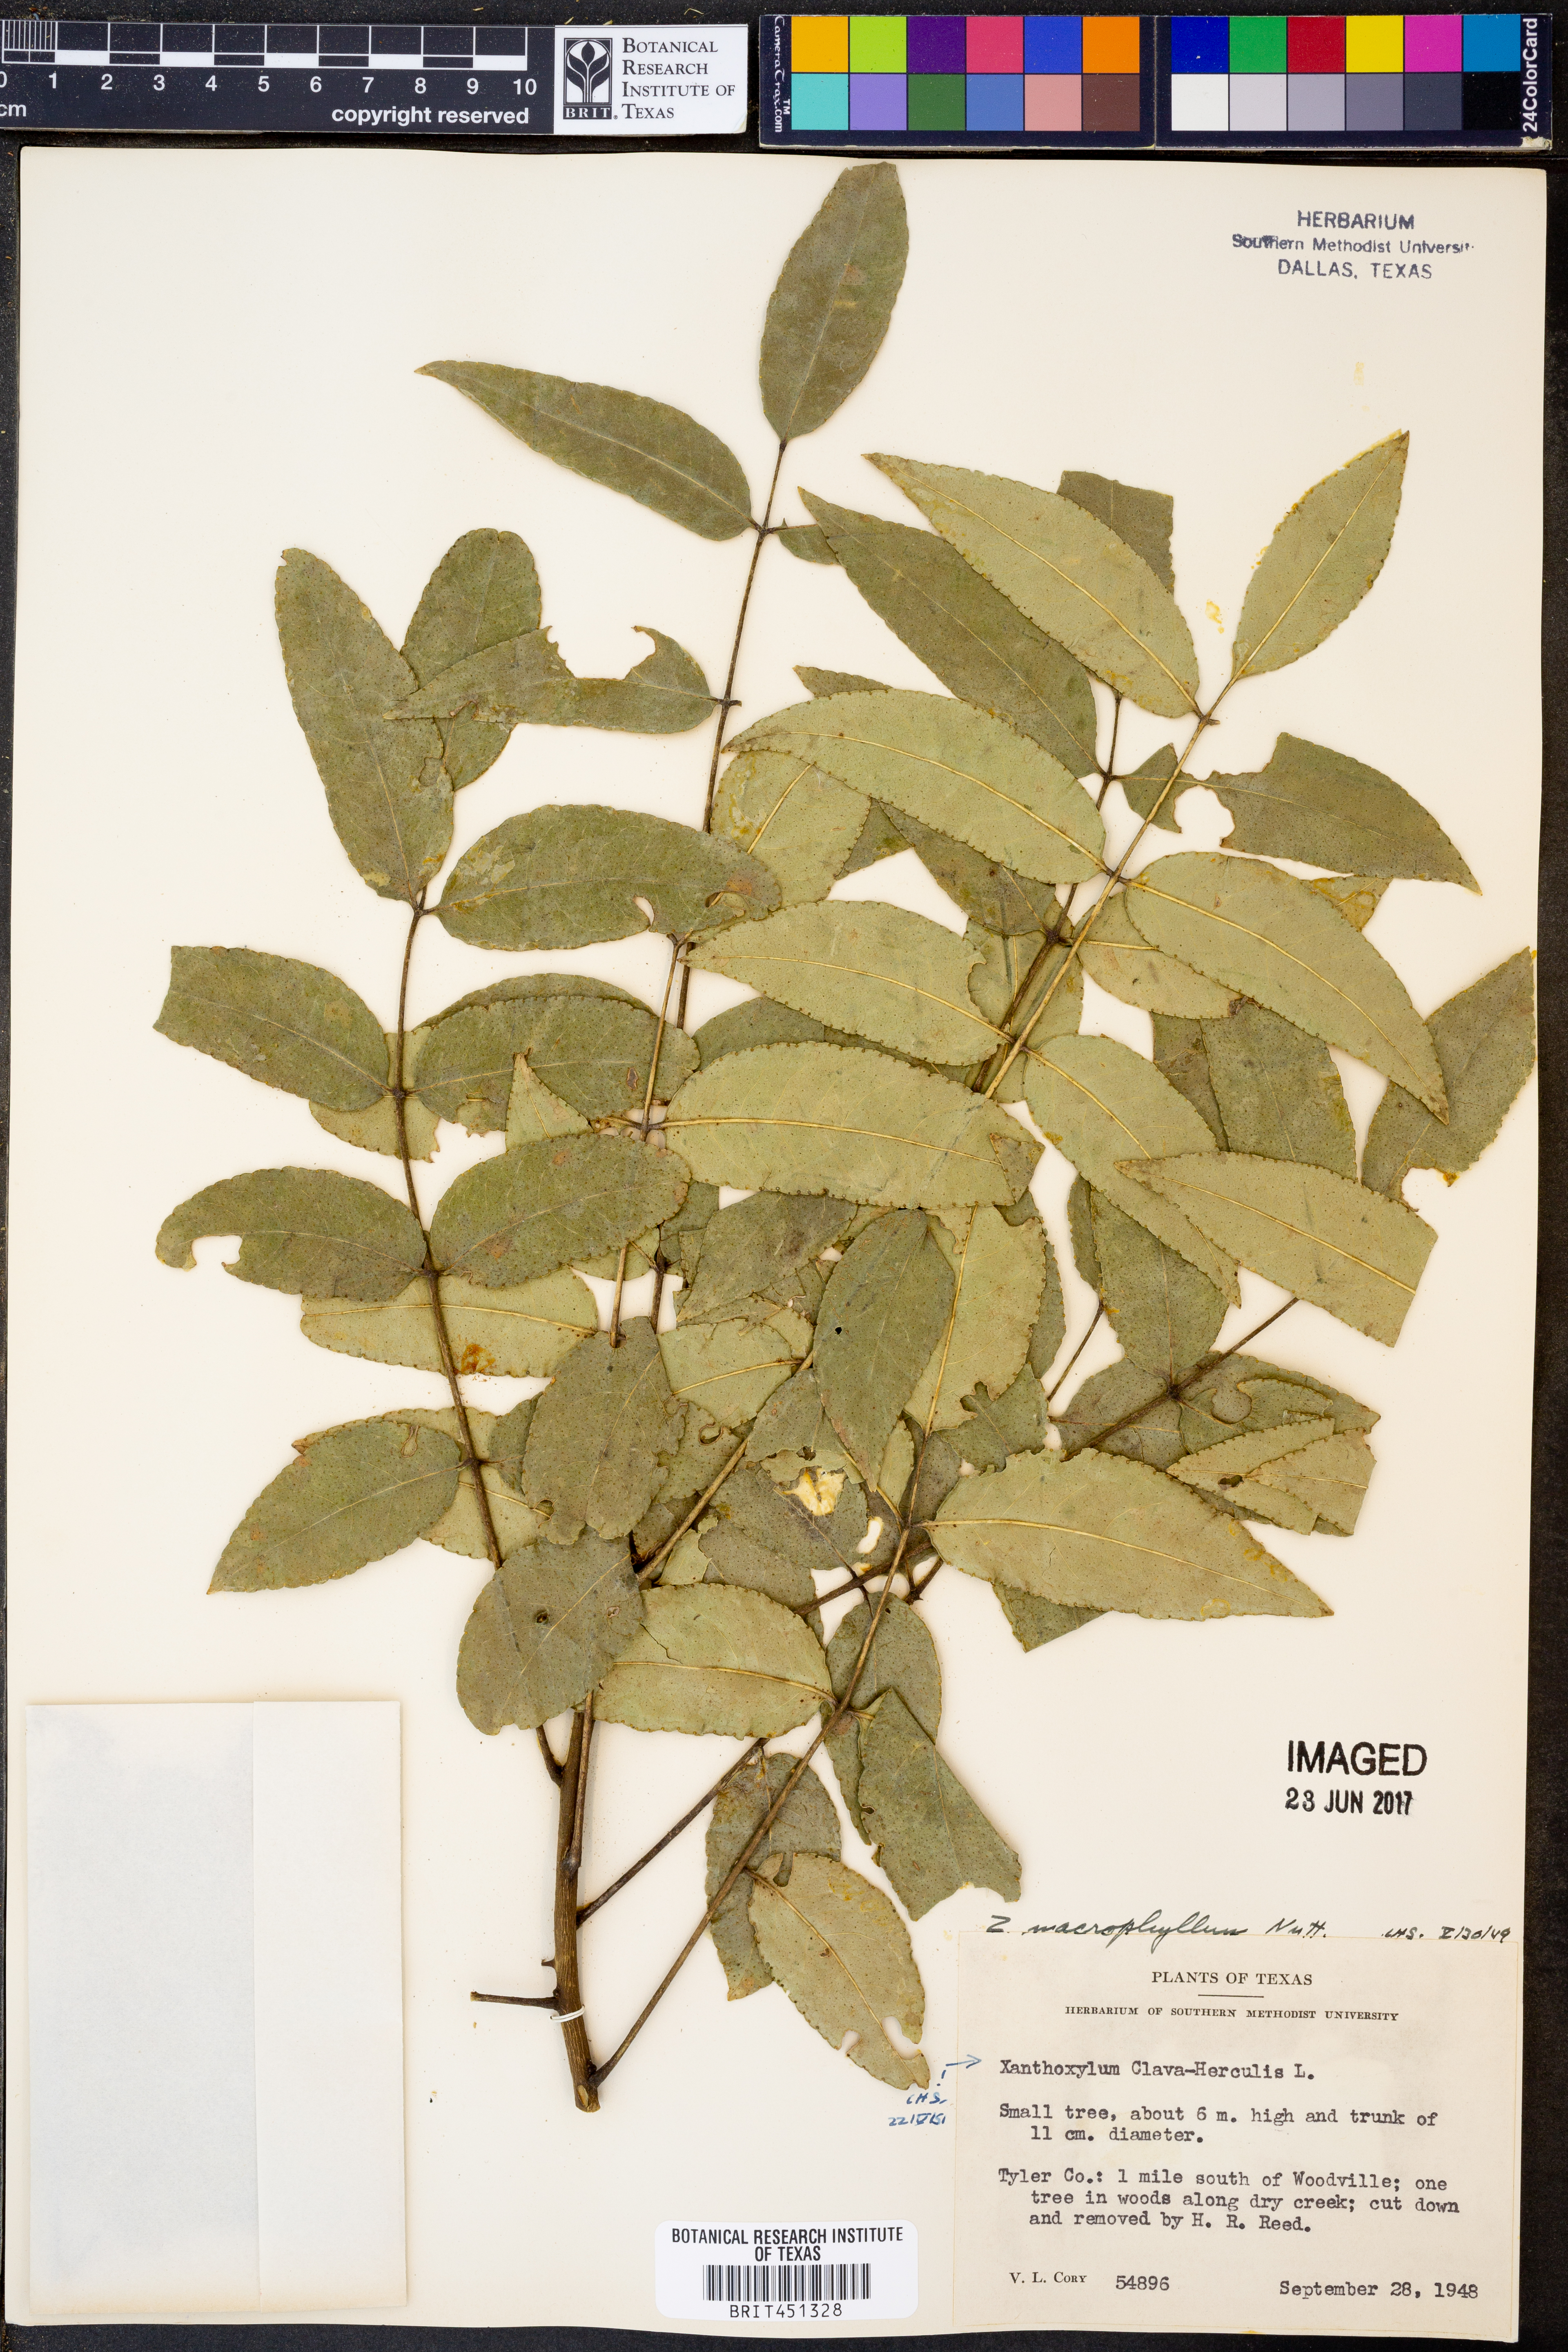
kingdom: Plantae
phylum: Tracheophyta
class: Magnoliopsida
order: Sapindales
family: Rutaceae
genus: Zanthoxylum
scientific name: Zanthoxylum avicennae
